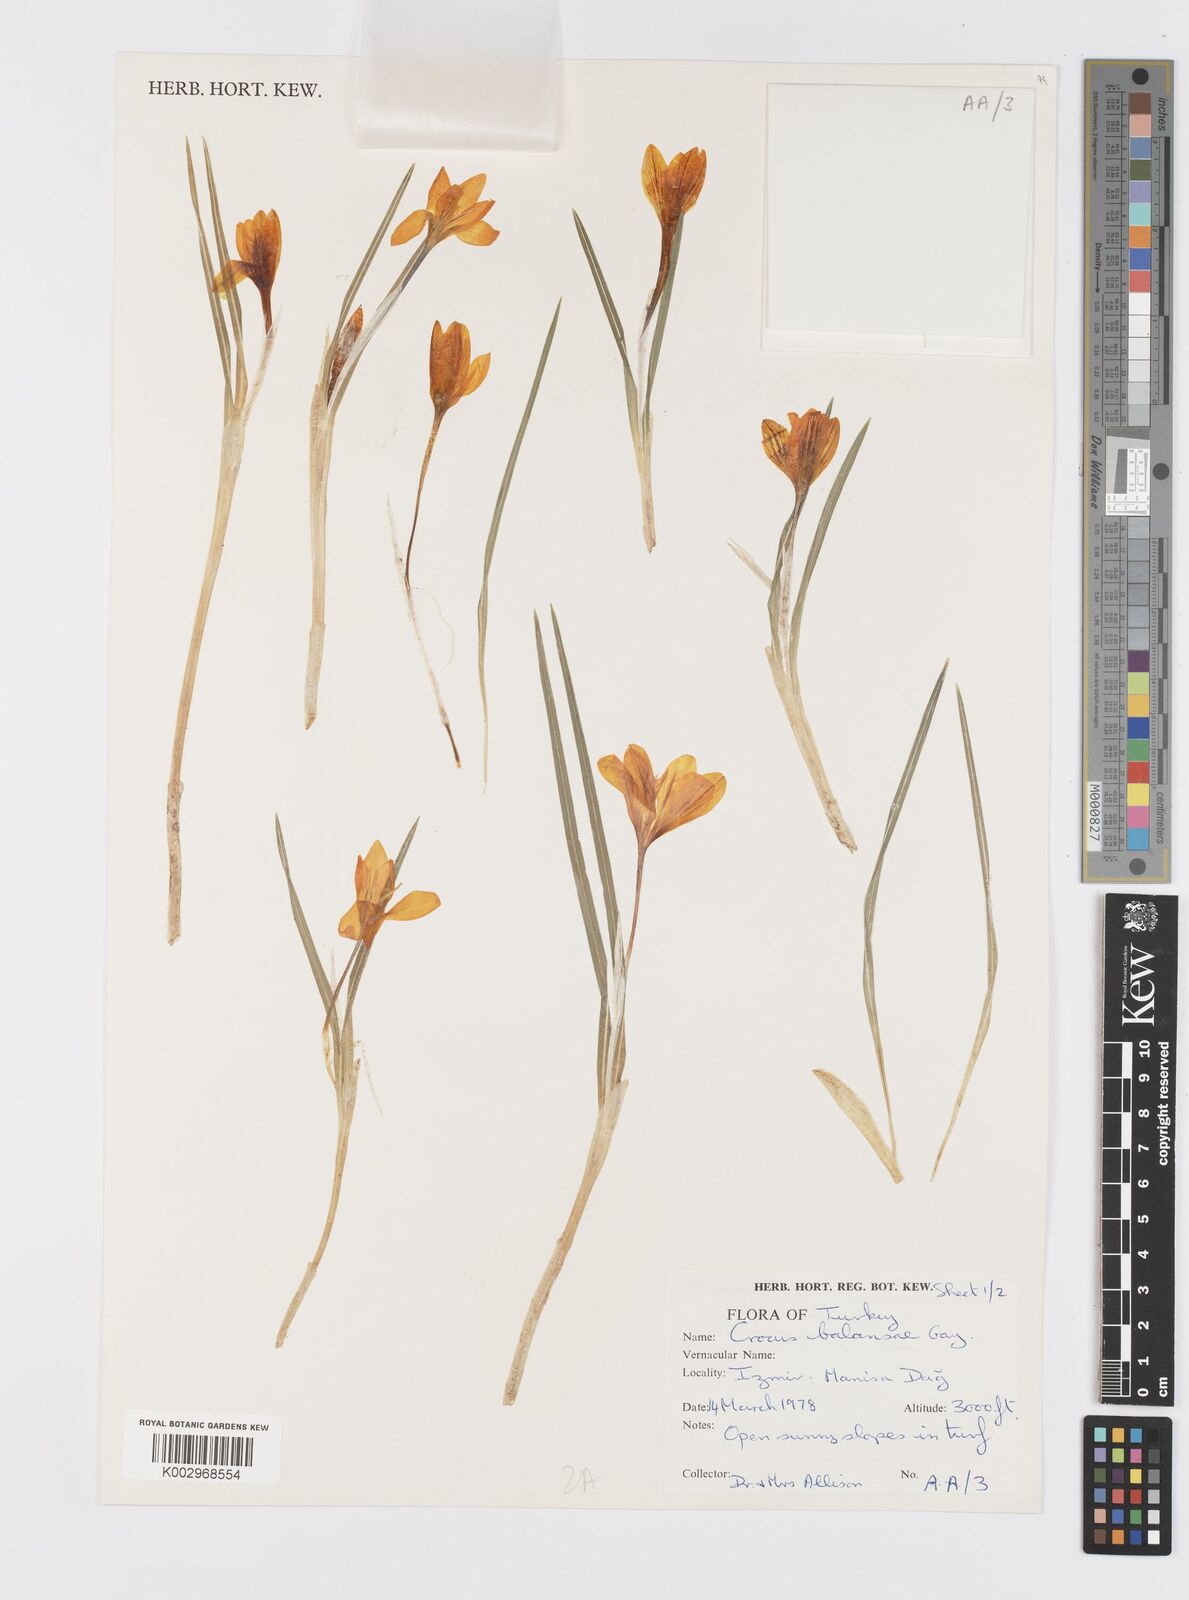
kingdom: Plantae
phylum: Tracheophyta
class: Liliopsida
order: Asparagales
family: Iridaceae
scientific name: Iridaceae
